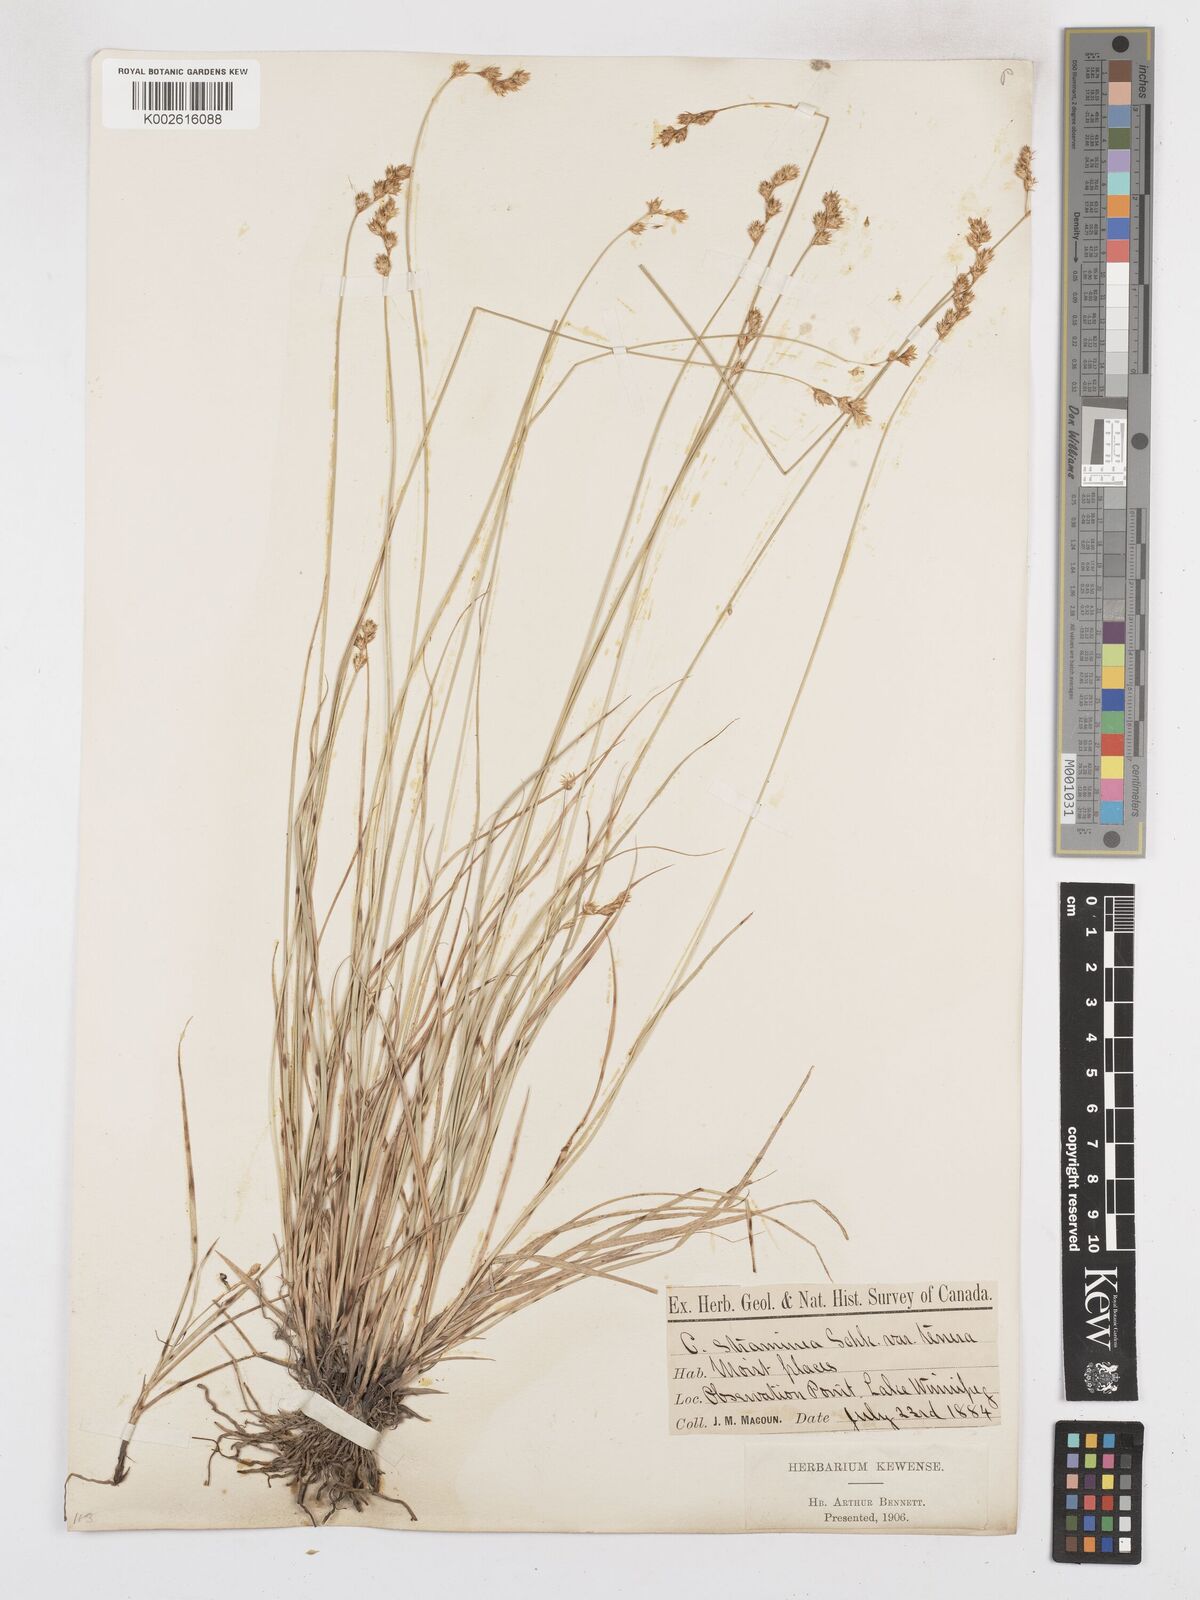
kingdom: Plantae
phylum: Tracheophyta
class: Liliopsida
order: Poales
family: Cyperaceae
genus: Carex
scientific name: Carex brevior
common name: Brevior sedge
